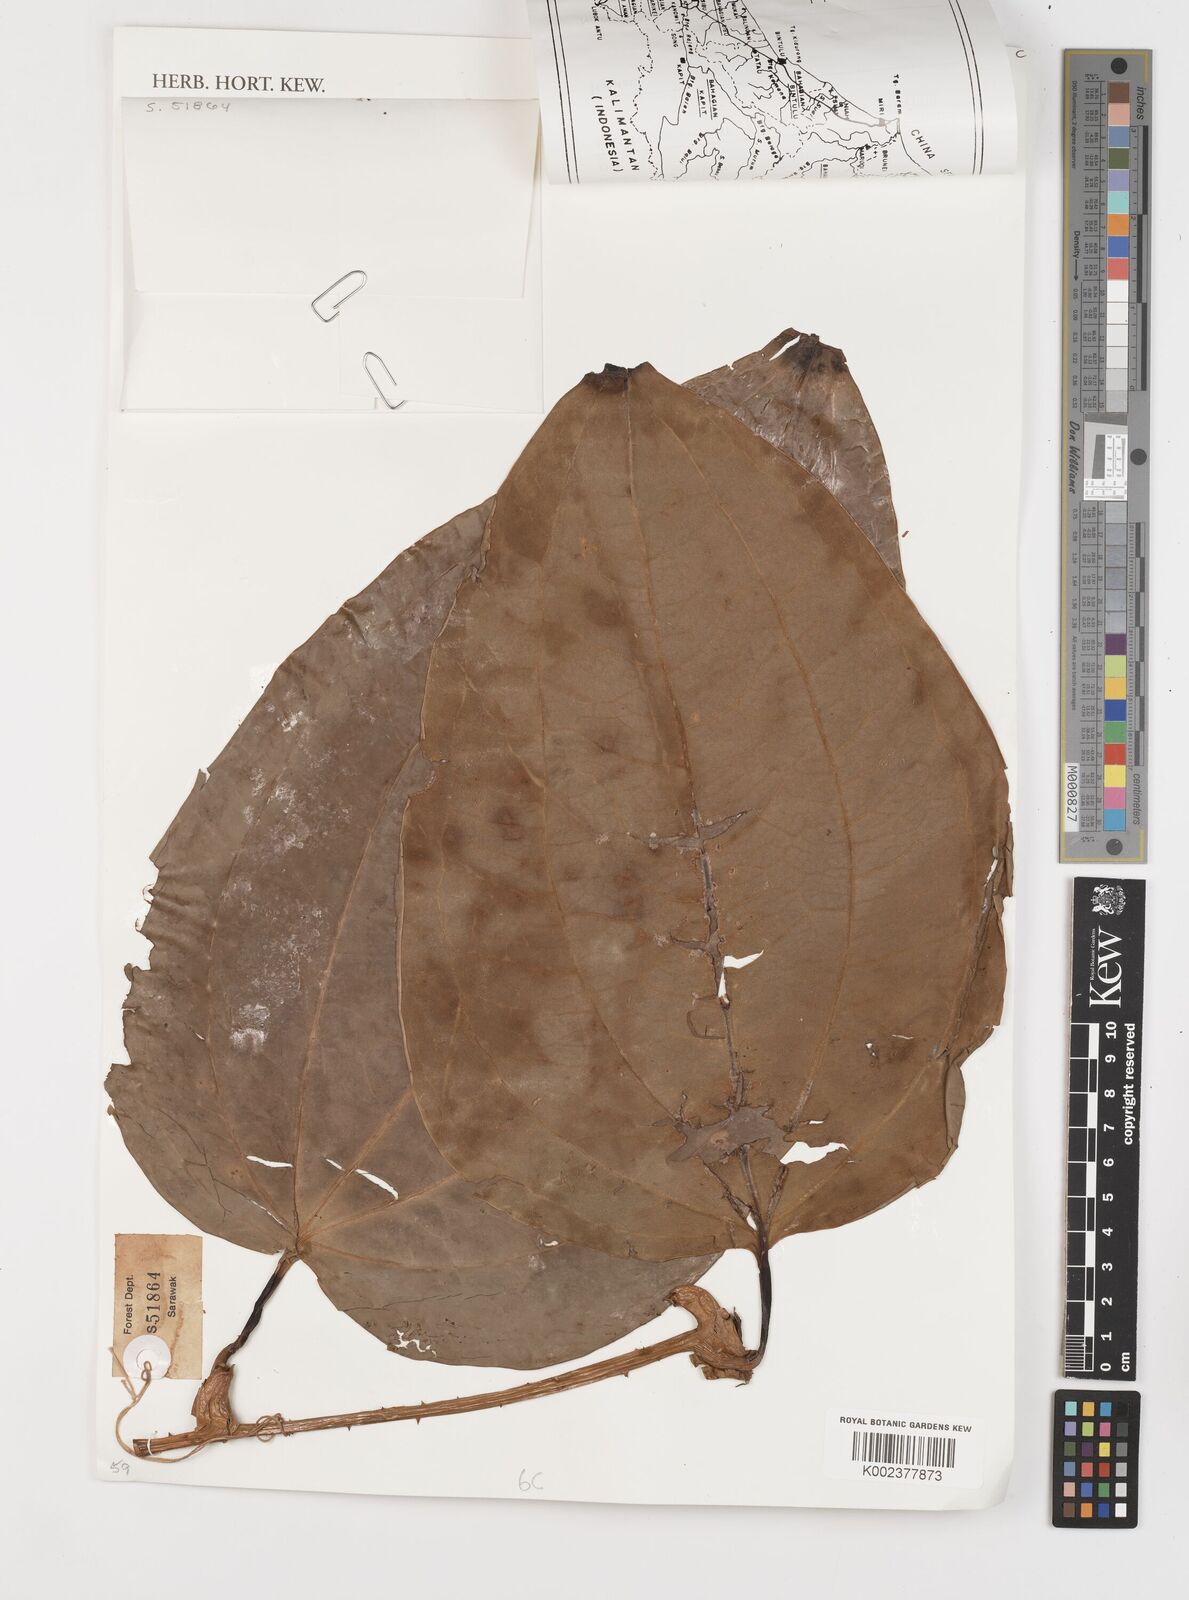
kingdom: Plantae
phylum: Tracheophyta
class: Liliopsida
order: Liliales
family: Smilacaceae
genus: Smilax
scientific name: Smilax
